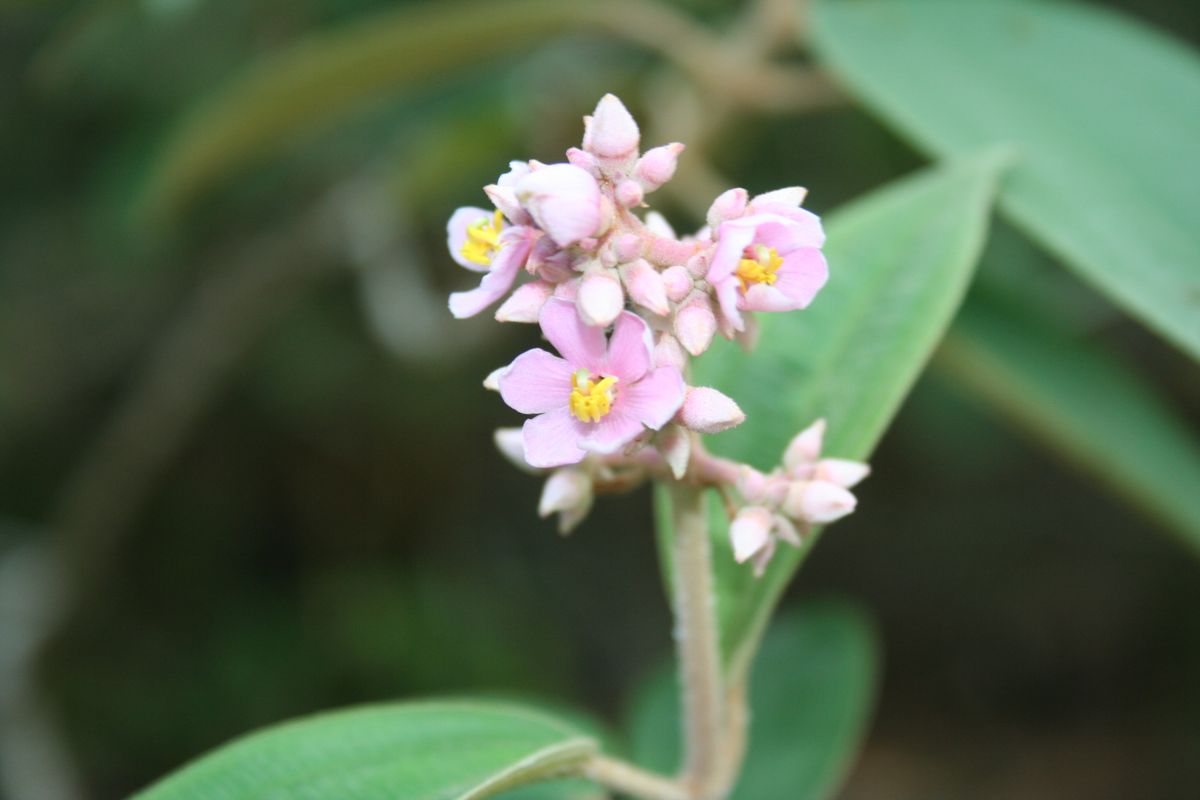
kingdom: Plantae
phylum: Tracheophyta
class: Magnoliopsida
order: Myrtales
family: Melastomataceae
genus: Miconia
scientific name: Miconia xalapensis
